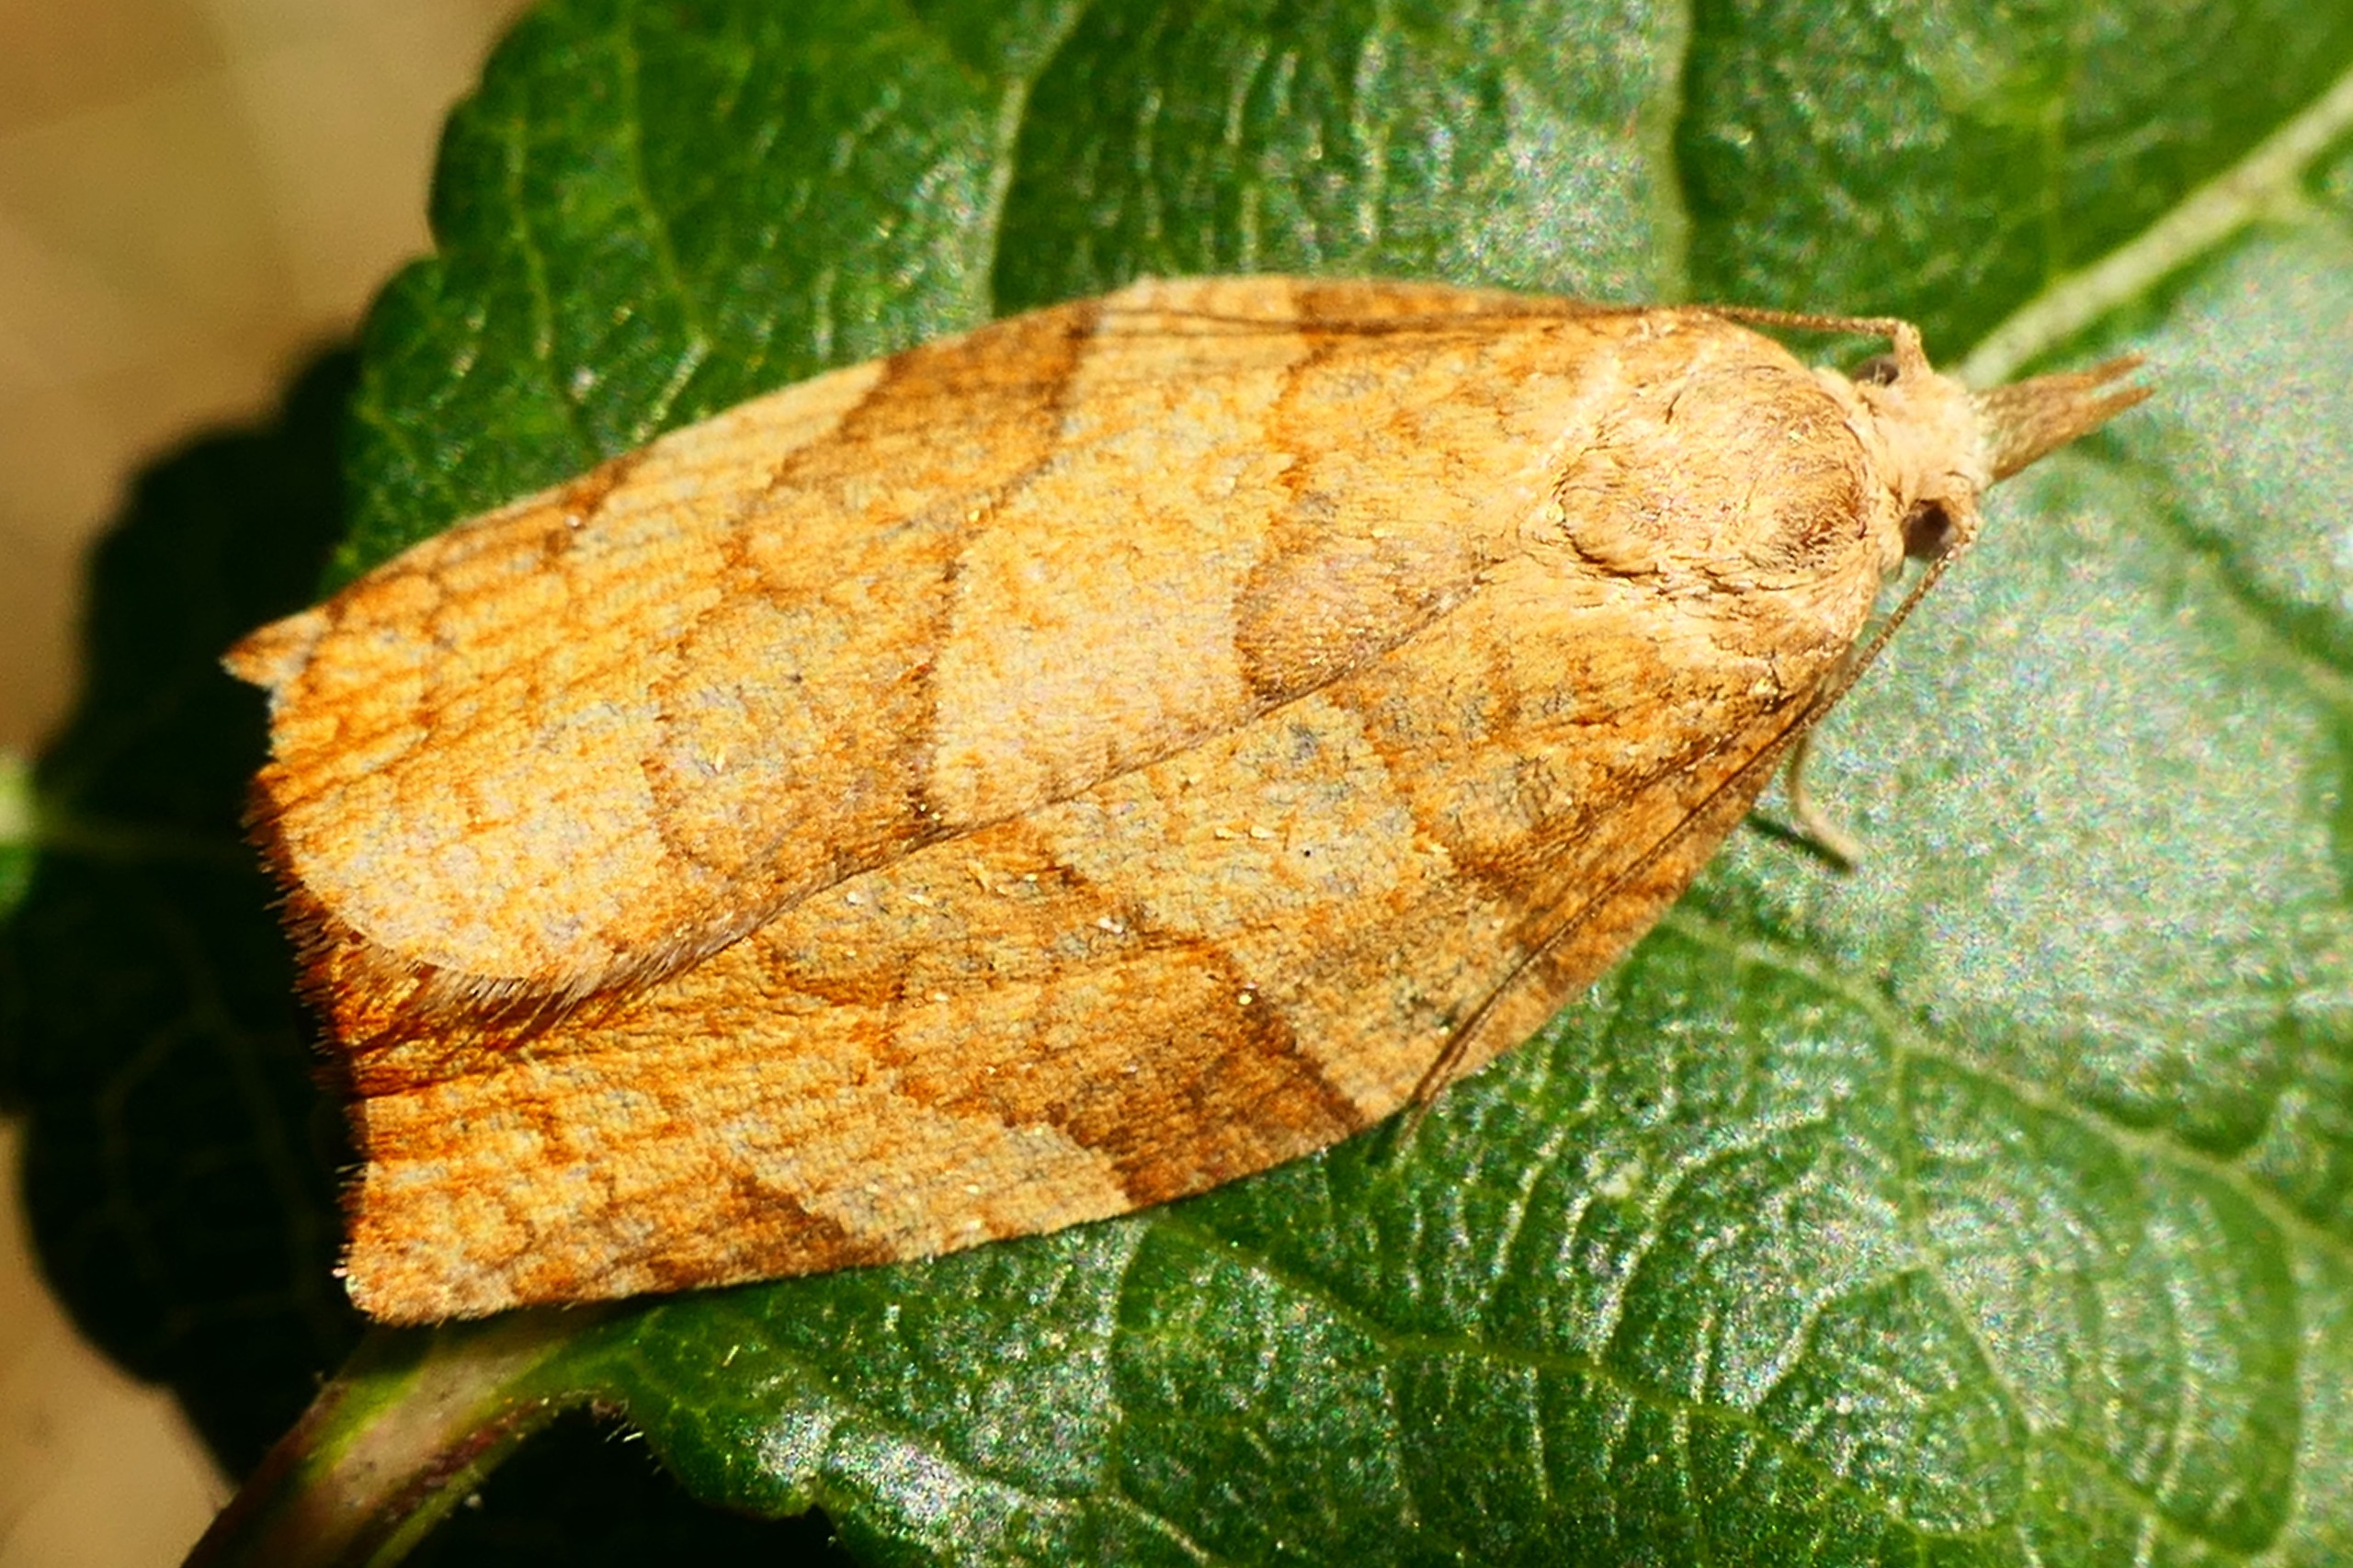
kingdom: Animalia
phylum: Arthropoda
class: Insecta
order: Lepidoptera
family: Tortricidae
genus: Pandemis
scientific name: Pandemis corylana
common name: Hasselbladvikler
